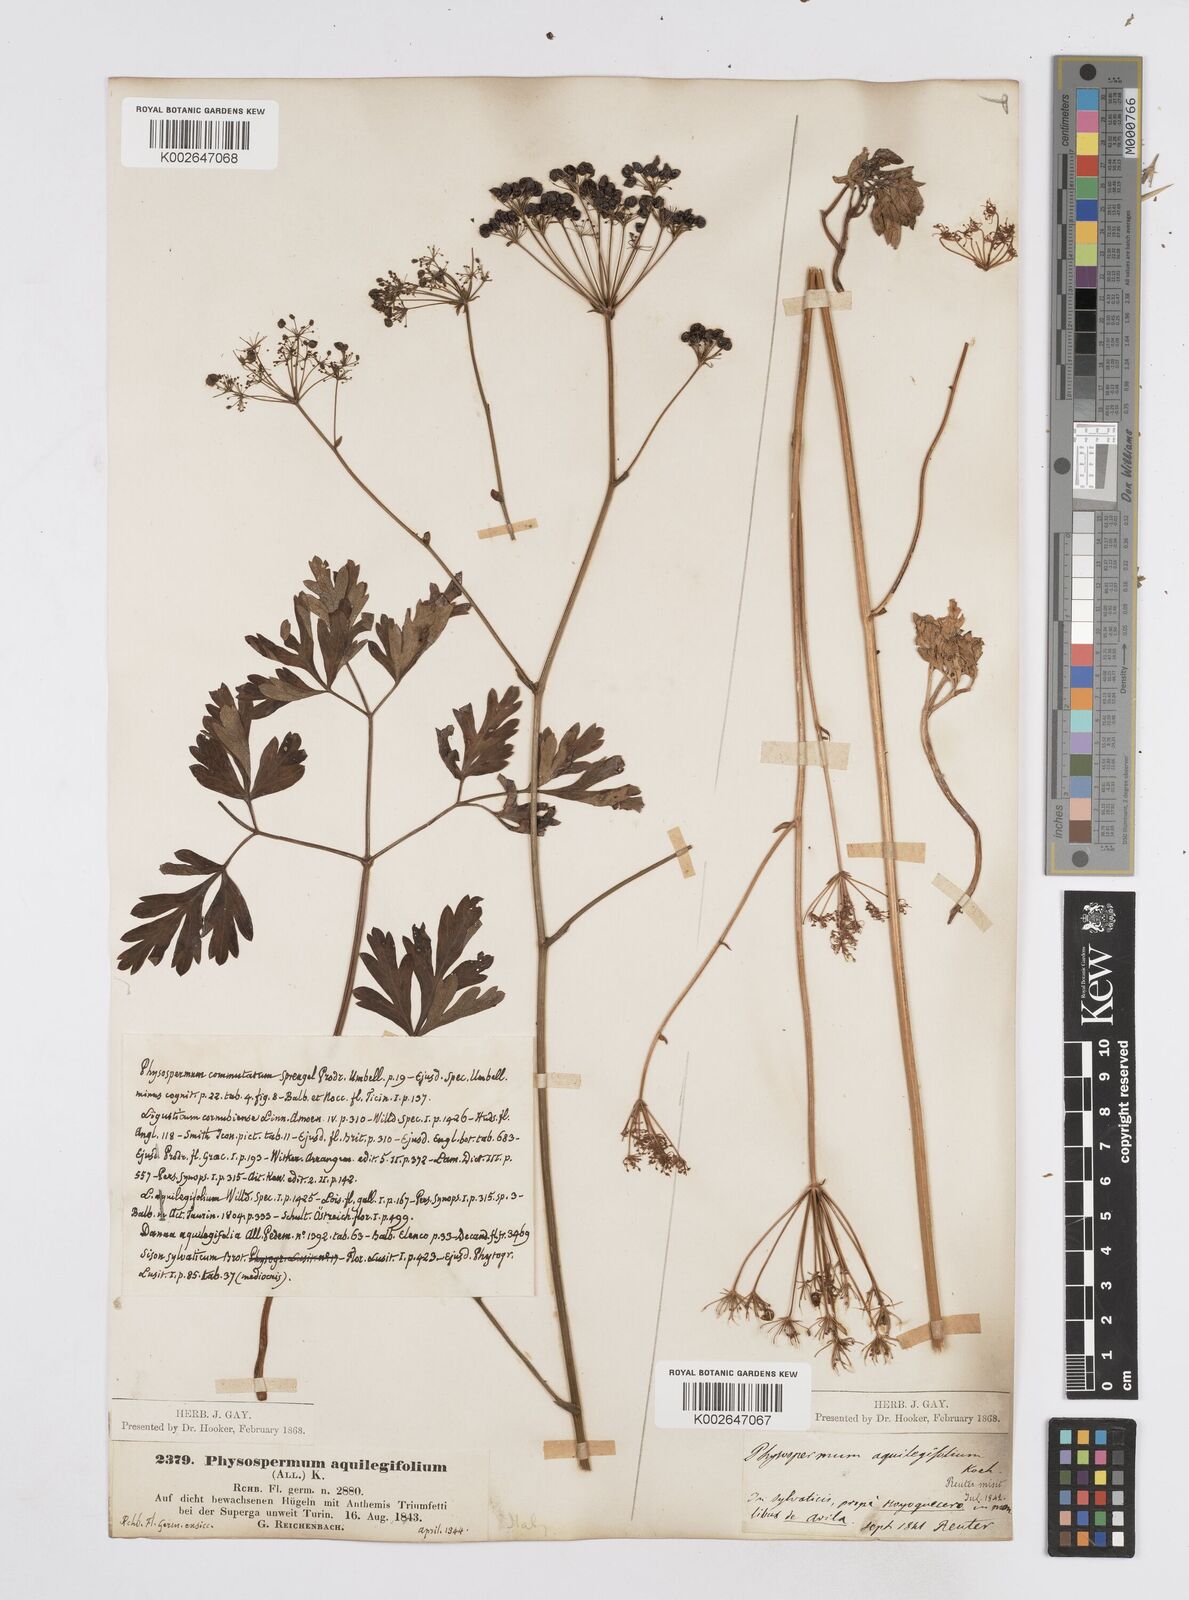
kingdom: Plantae
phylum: Tracheophyta
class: Magnoliopsida
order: Apiales
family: Apiaceae
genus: Physospermum
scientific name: Physospermum cornubiense
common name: Bladderseed
